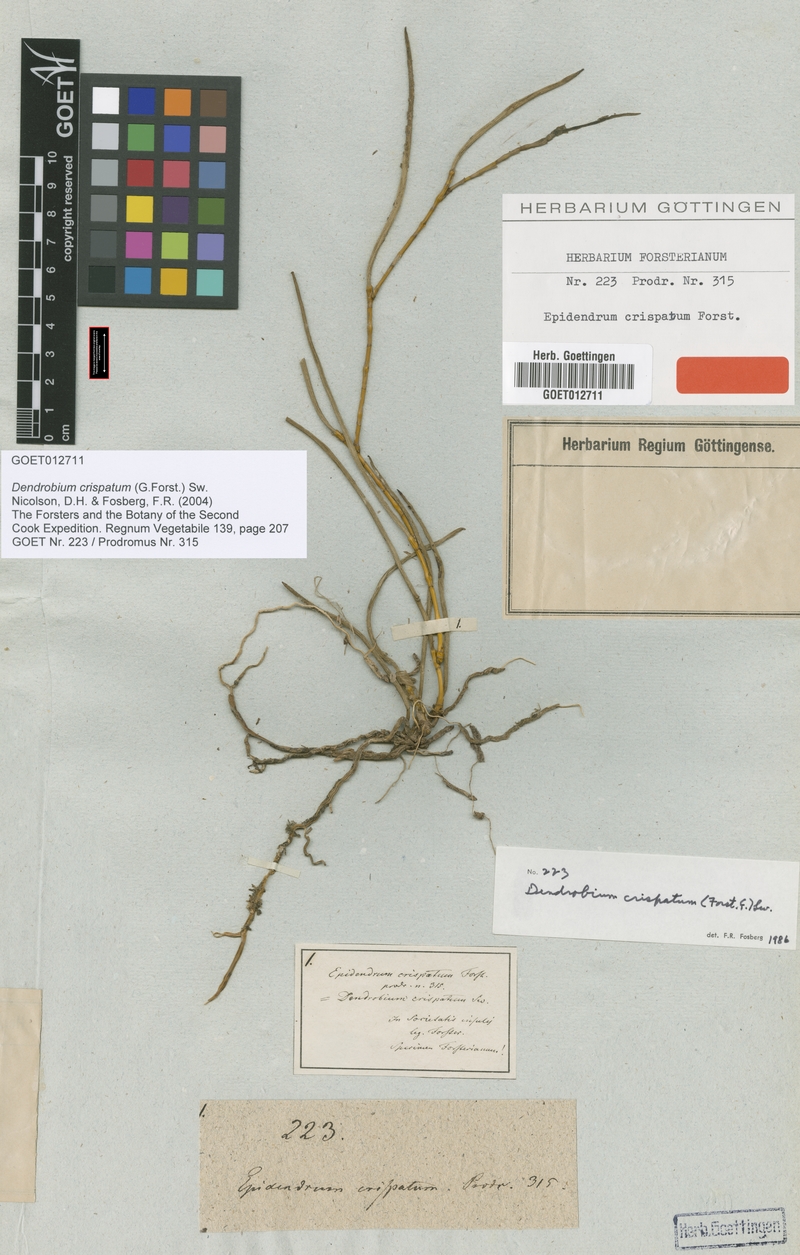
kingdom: Plantae
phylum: Tracheophyta
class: Liliopsida
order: Asparagales
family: Orchidaceae
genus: Dendrobium
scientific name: Dendrobium crispatum
